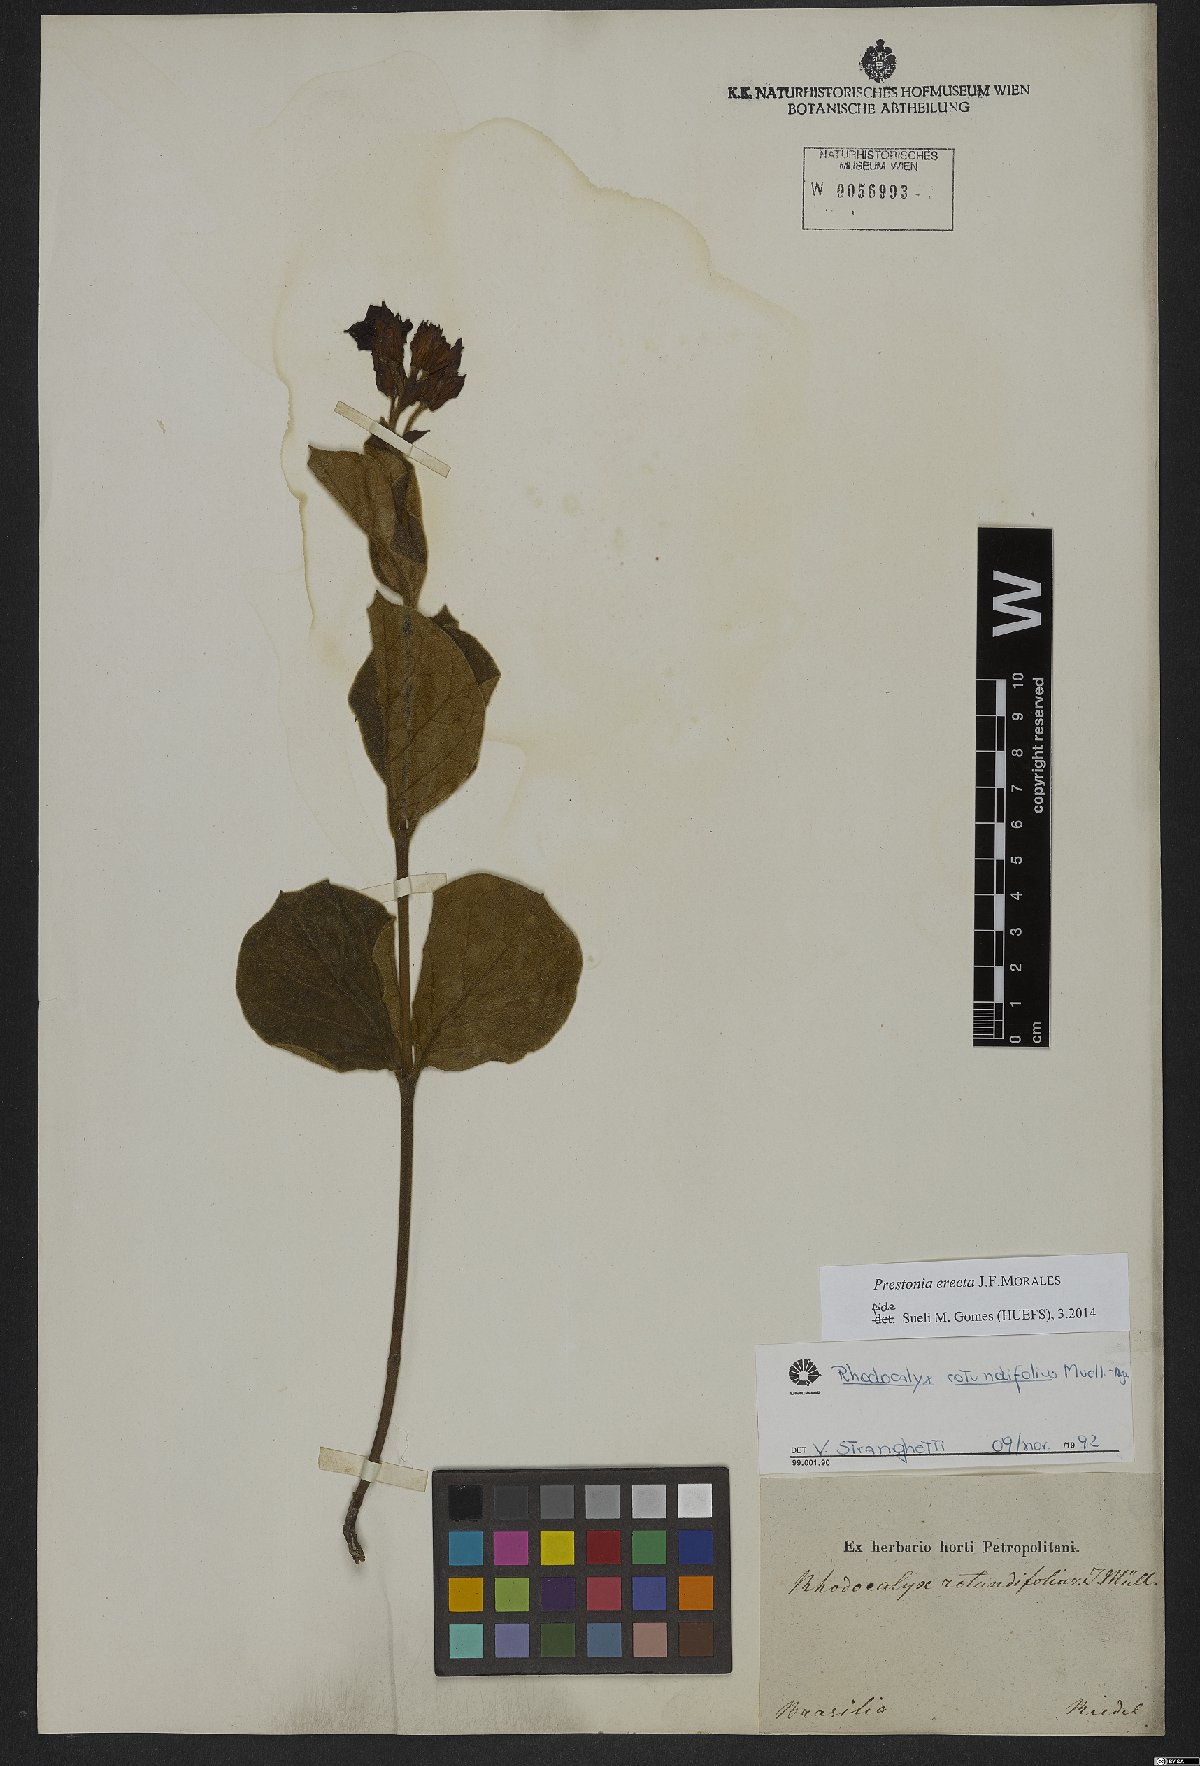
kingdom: Plantae
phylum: Tracheophyta
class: Magnoliopsida
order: Gentianales
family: Apocynaceae
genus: Prestonia
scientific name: Prestonia erecta
